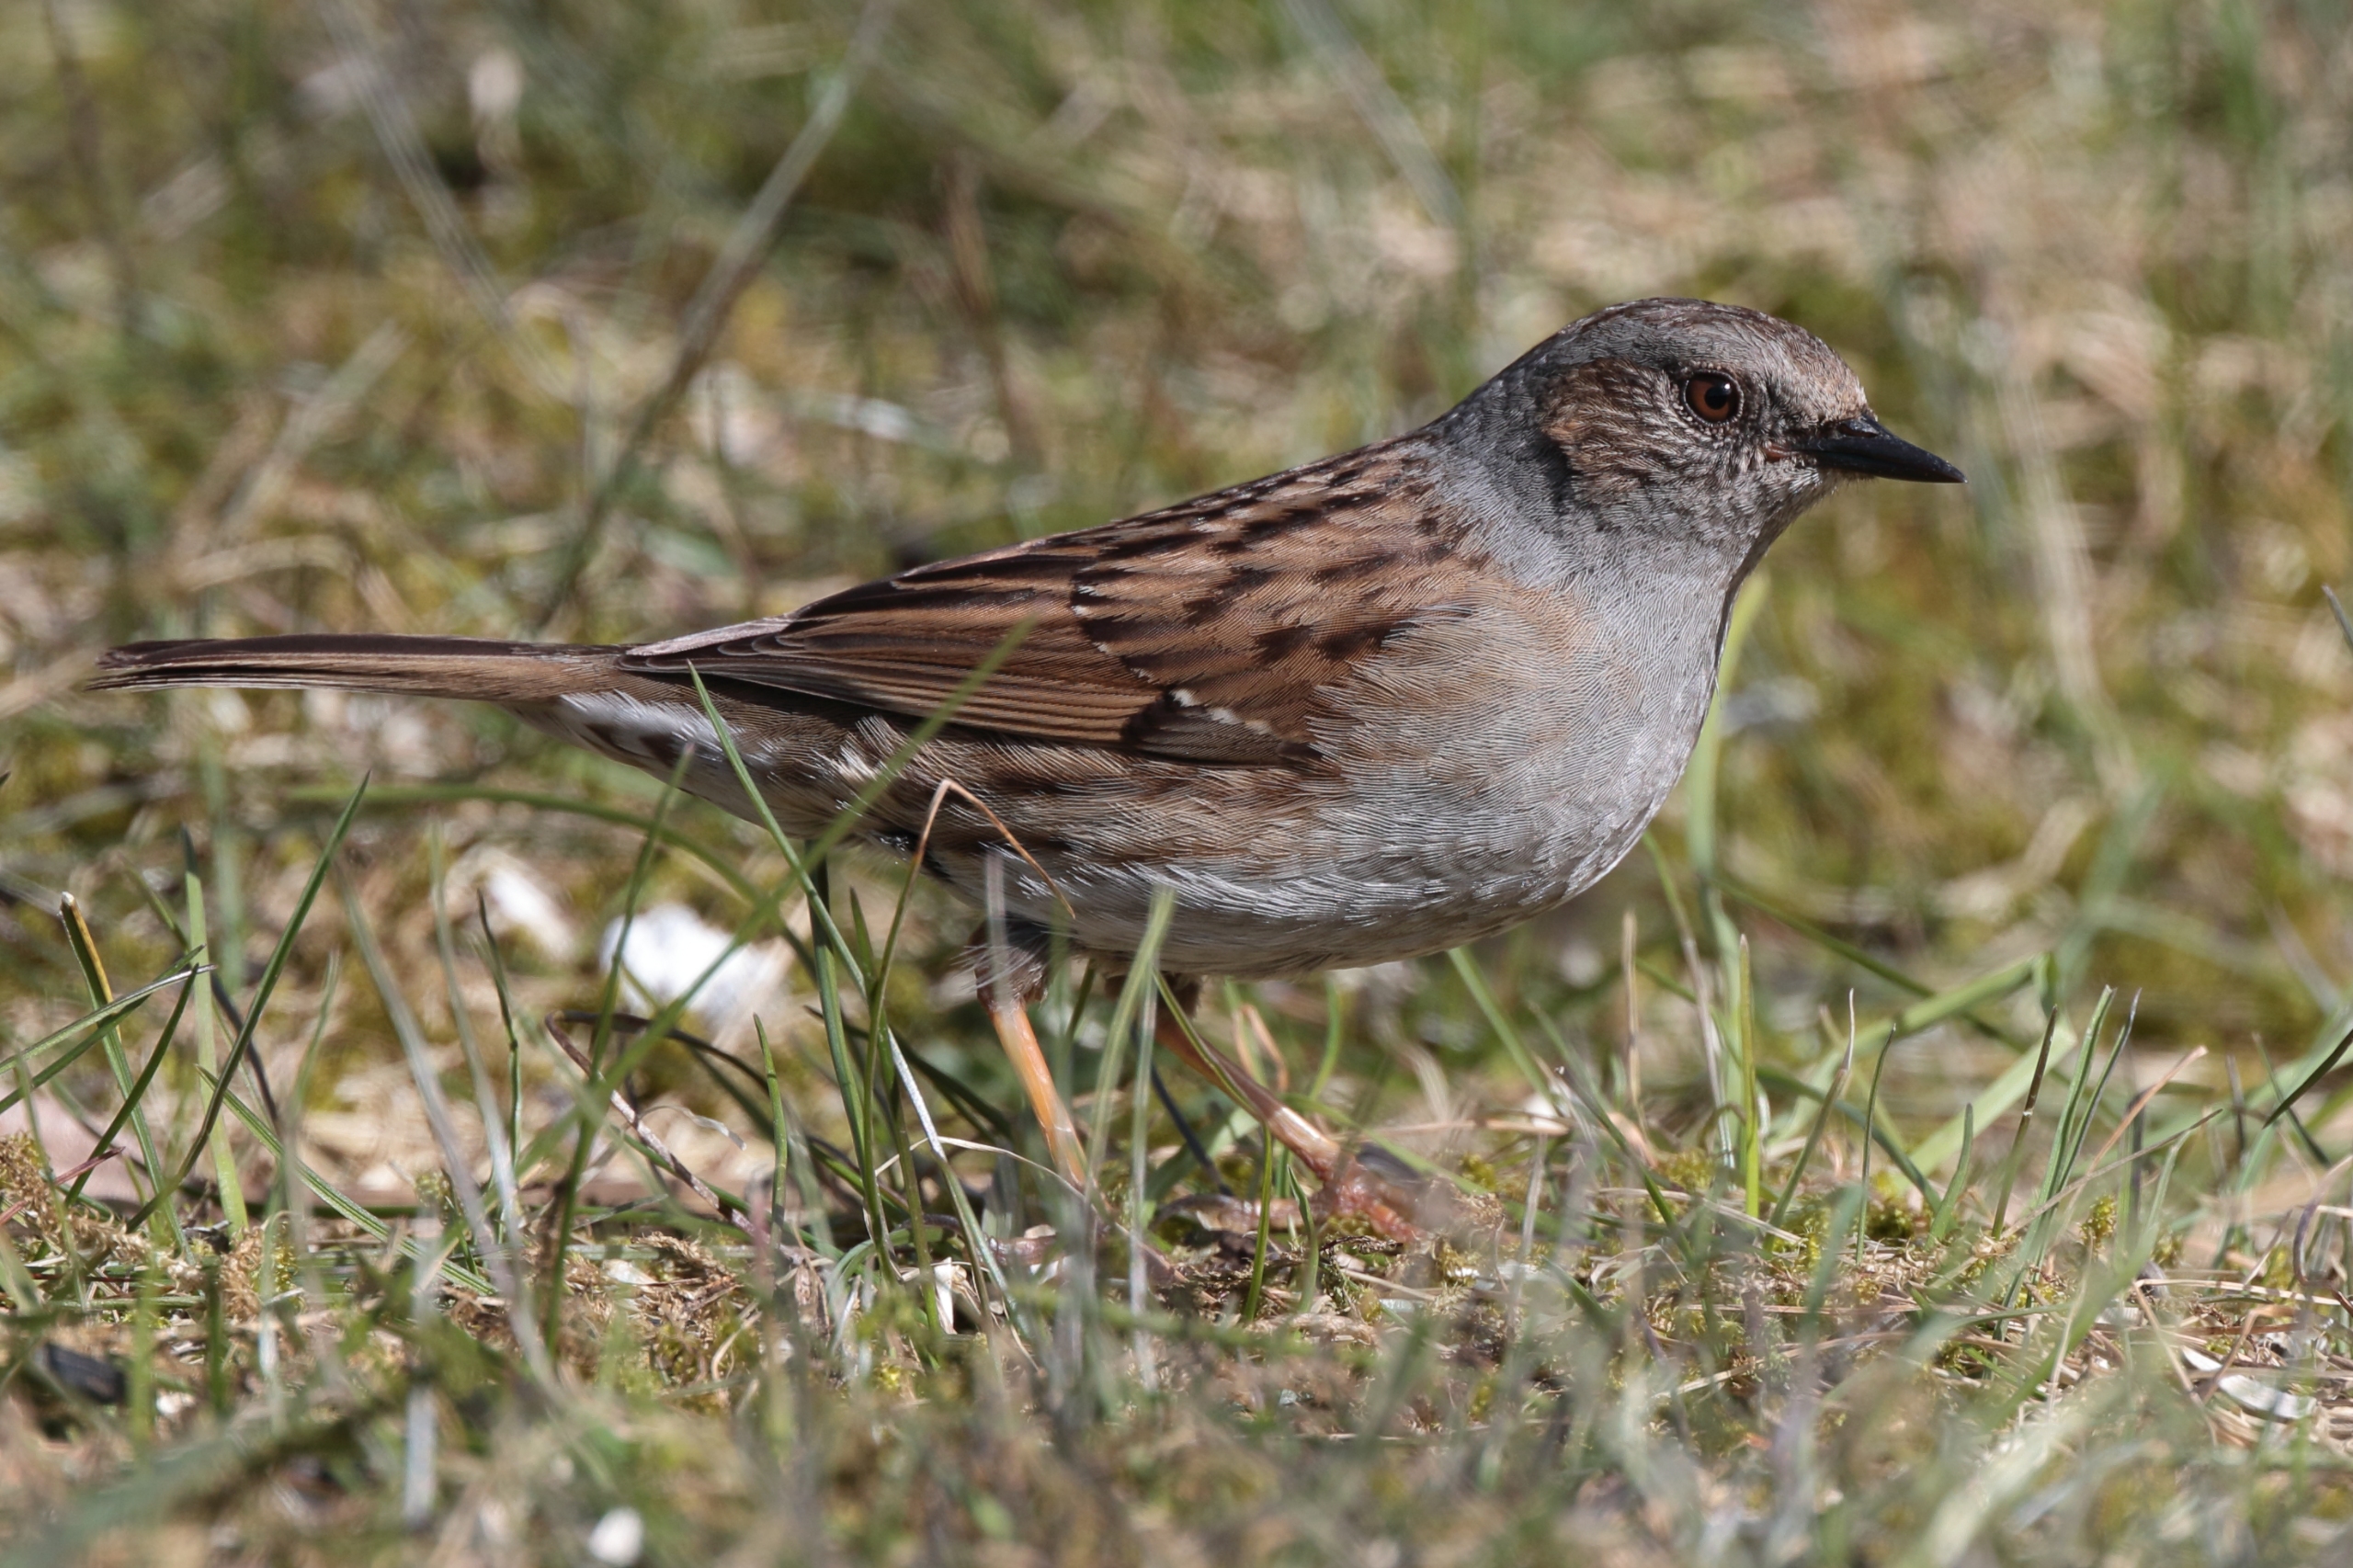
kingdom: Animalia
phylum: Chordata
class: Aves
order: Passeriformes
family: Prunellidae
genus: Prunella
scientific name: Prunella modularis
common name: Jernspurv
